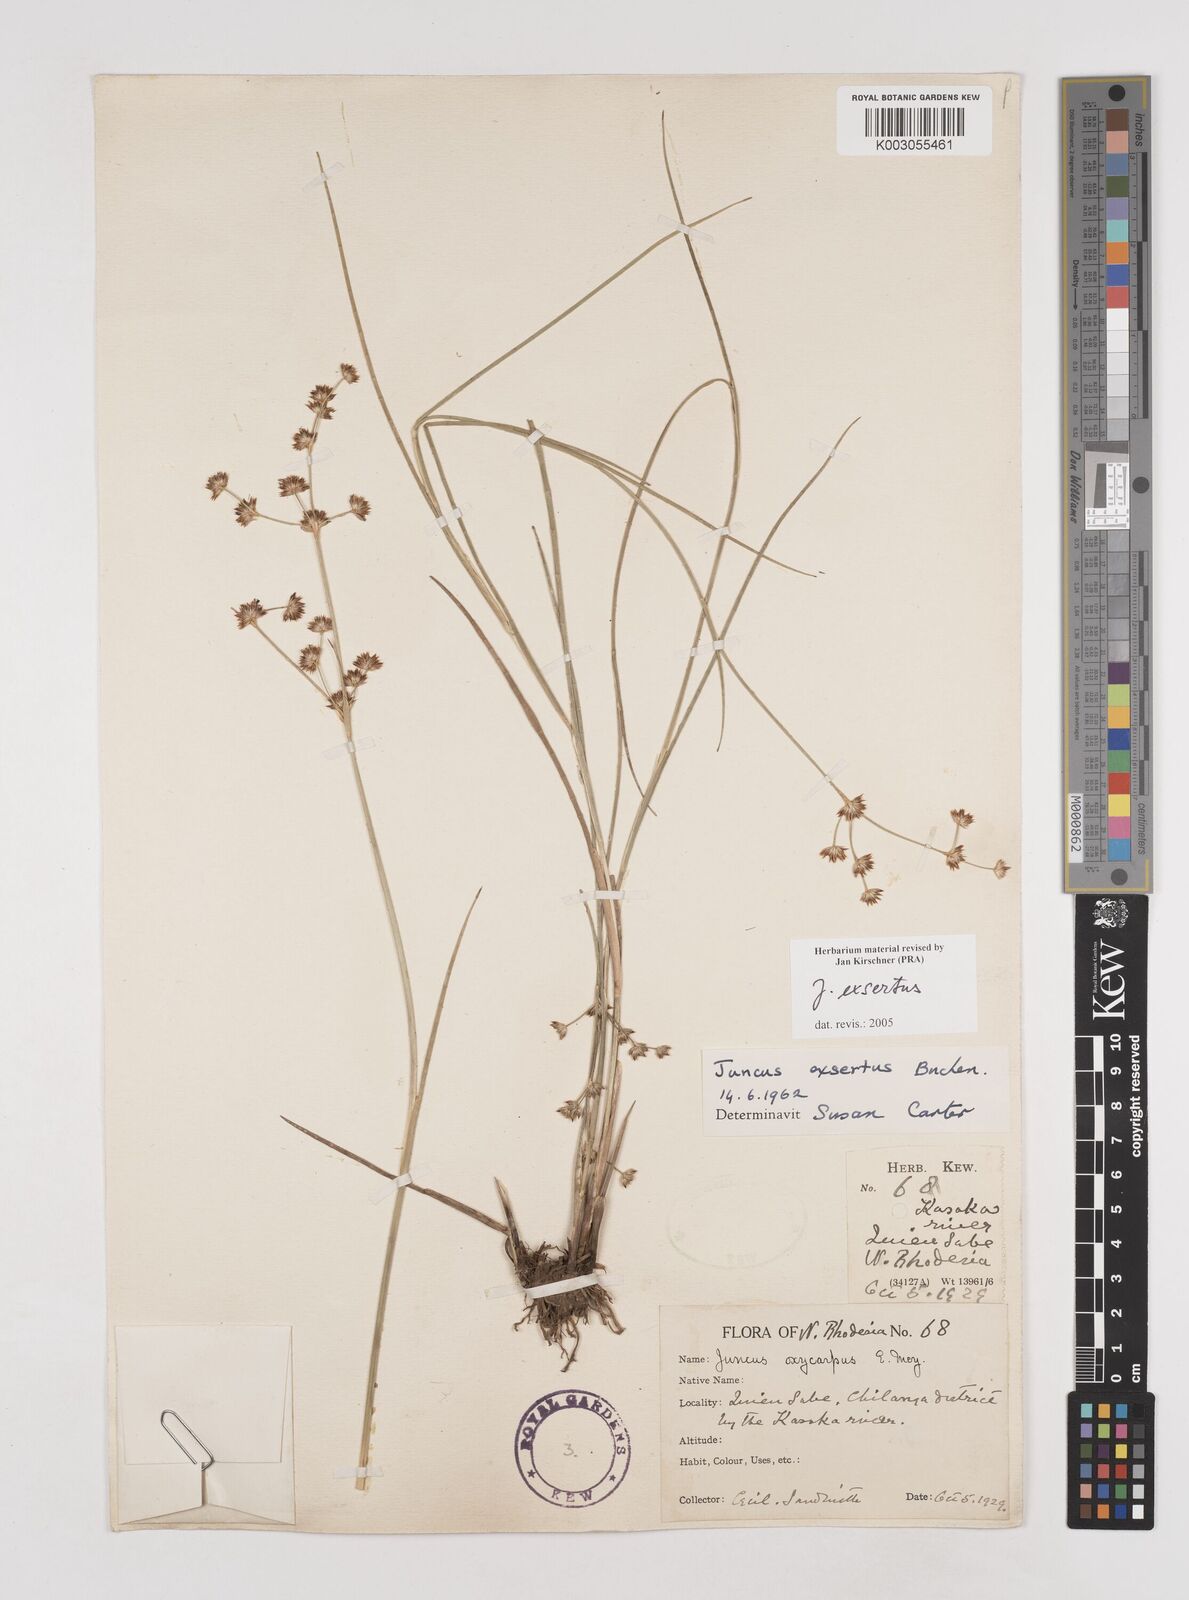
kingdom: Plantae
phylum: Tracheophyta
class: Liliopsida
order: Poales
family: Juncaceae
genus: Juncus
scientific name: Juncus exsertus
